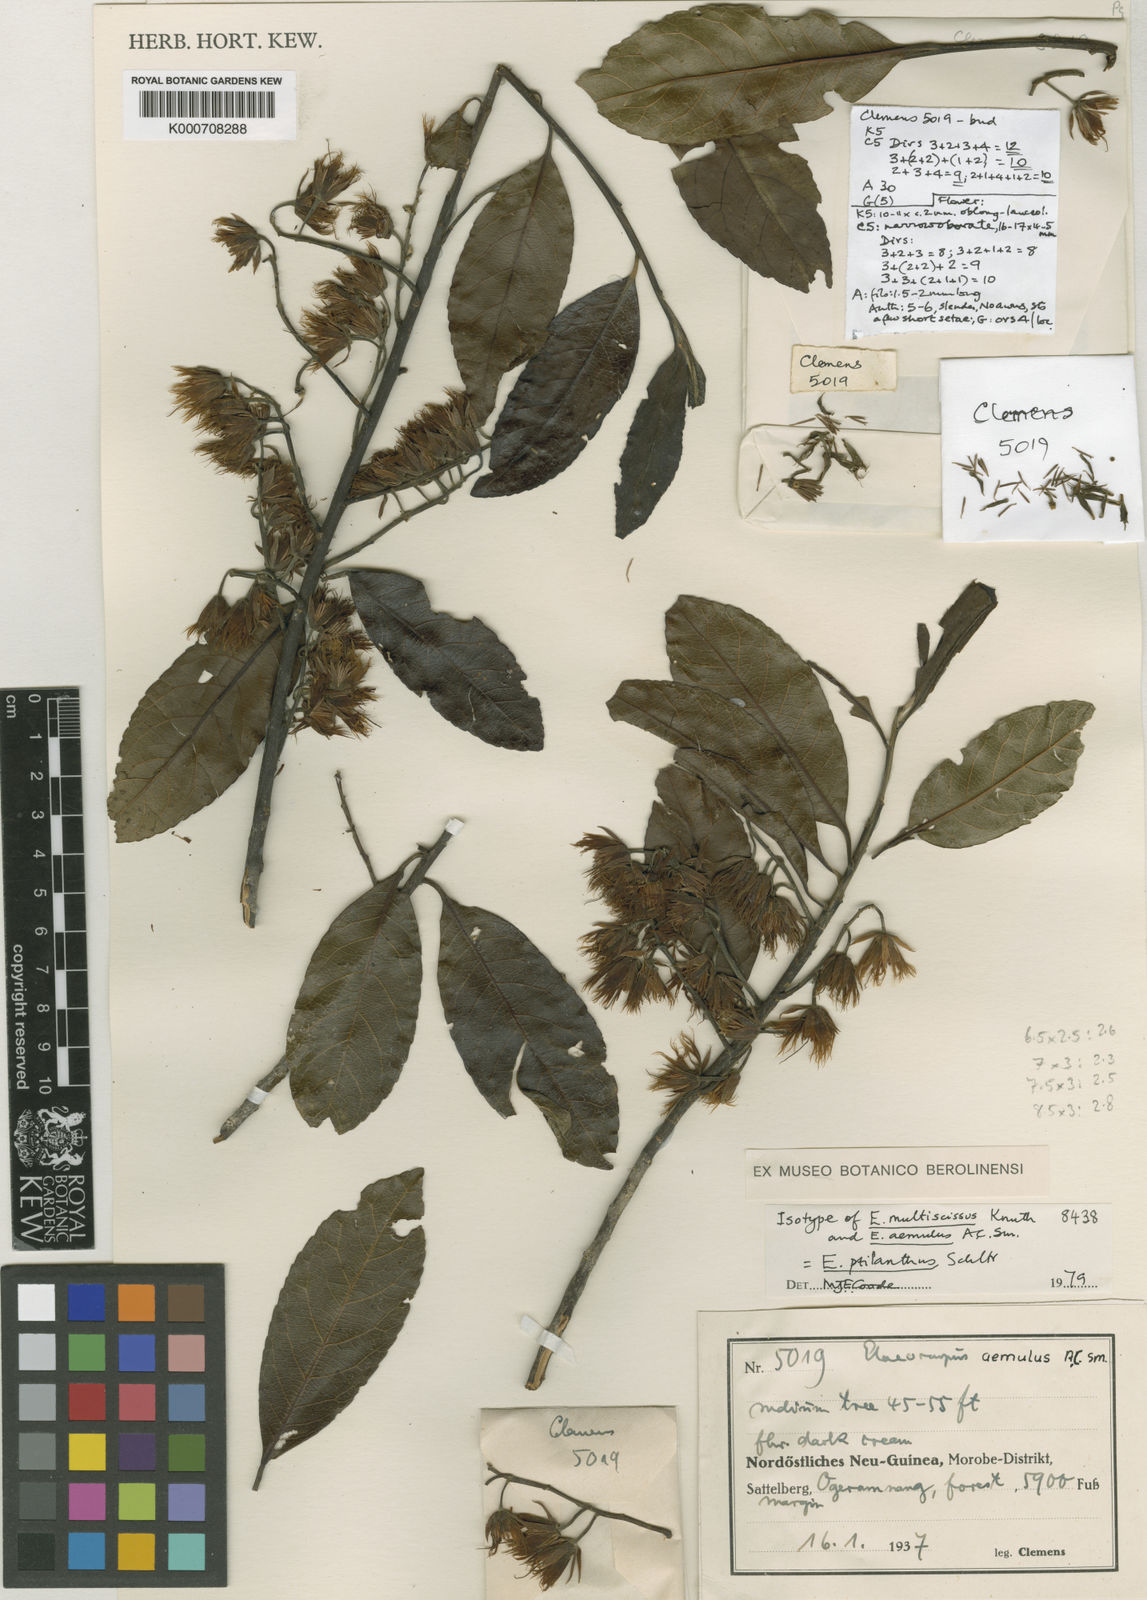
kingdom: Plantae
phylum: Tracheophyta
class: Magnoliopsida
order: Oxalidales
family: Elaeocarpaceae
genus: Elaeocarpus
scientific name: Elaeocarpus ptilanthus
